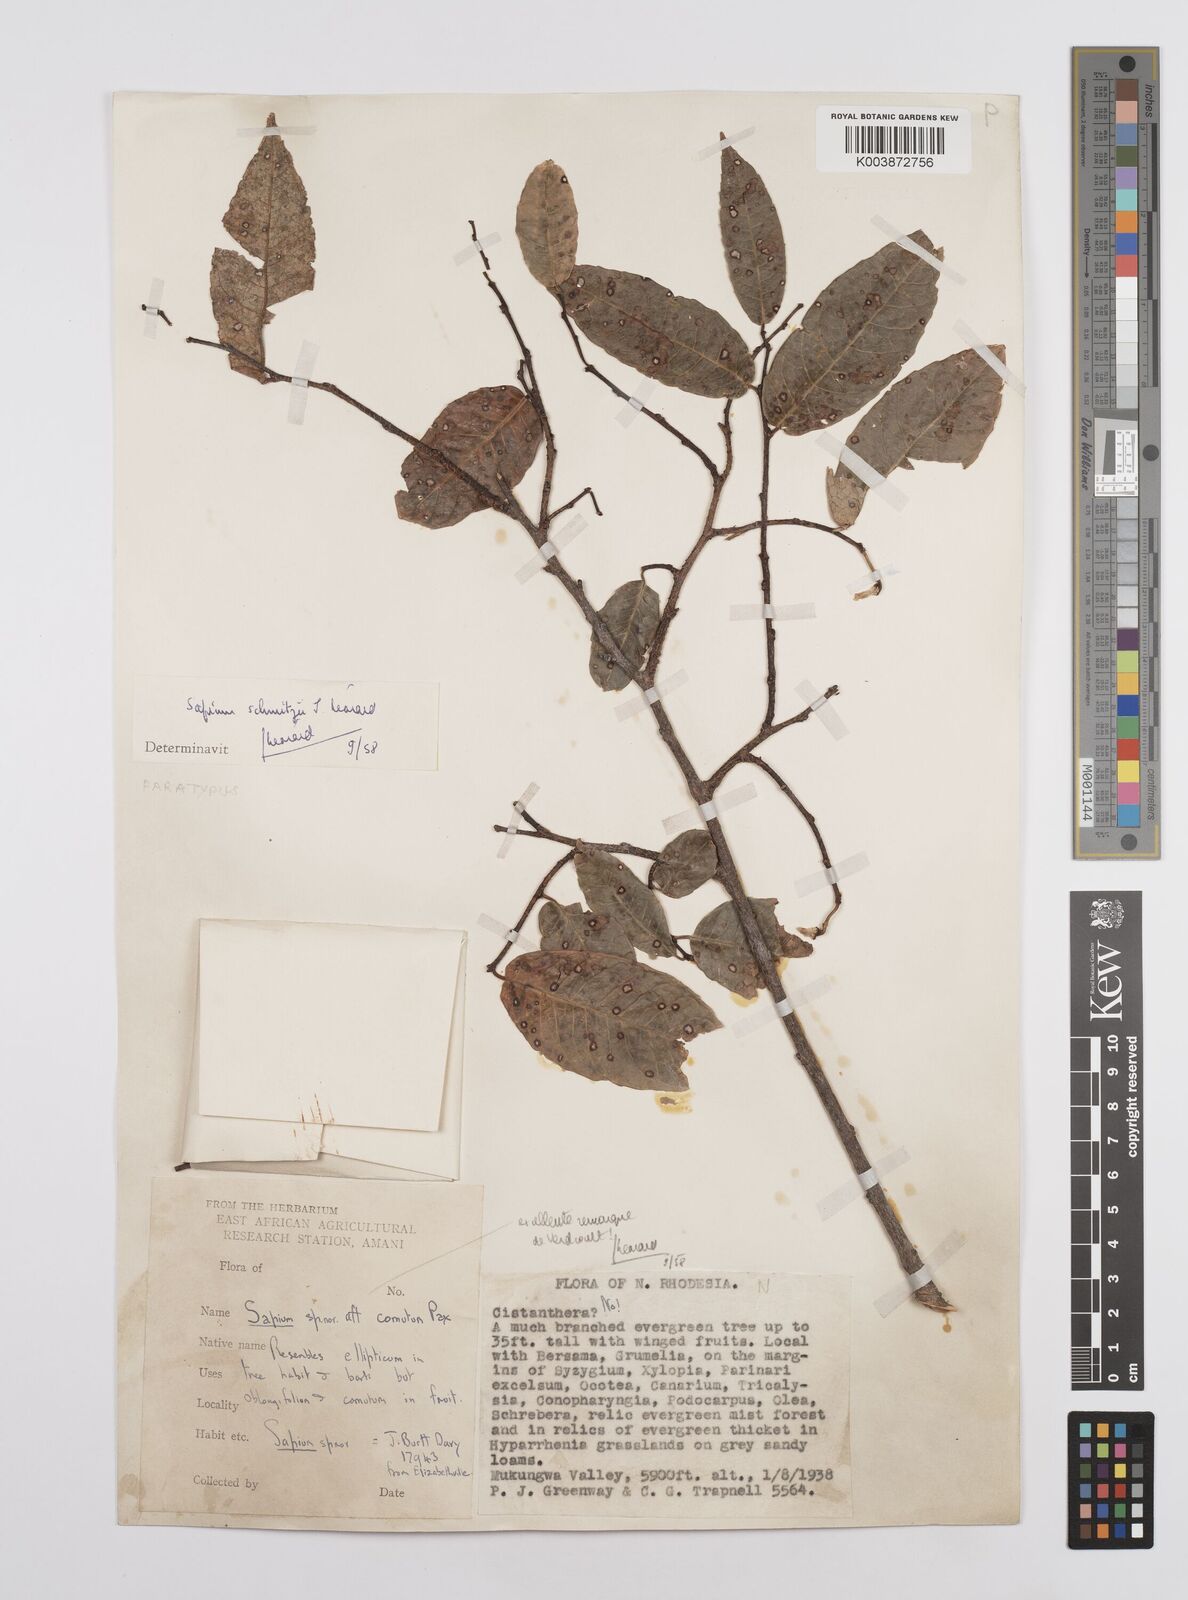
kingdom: Plantae
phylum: Tracheophyta
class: Magnoliopsida
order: Malpighiales
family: Euphorbiaceae
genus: Sclerocroton
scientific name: Sclerocroton schmitzii
